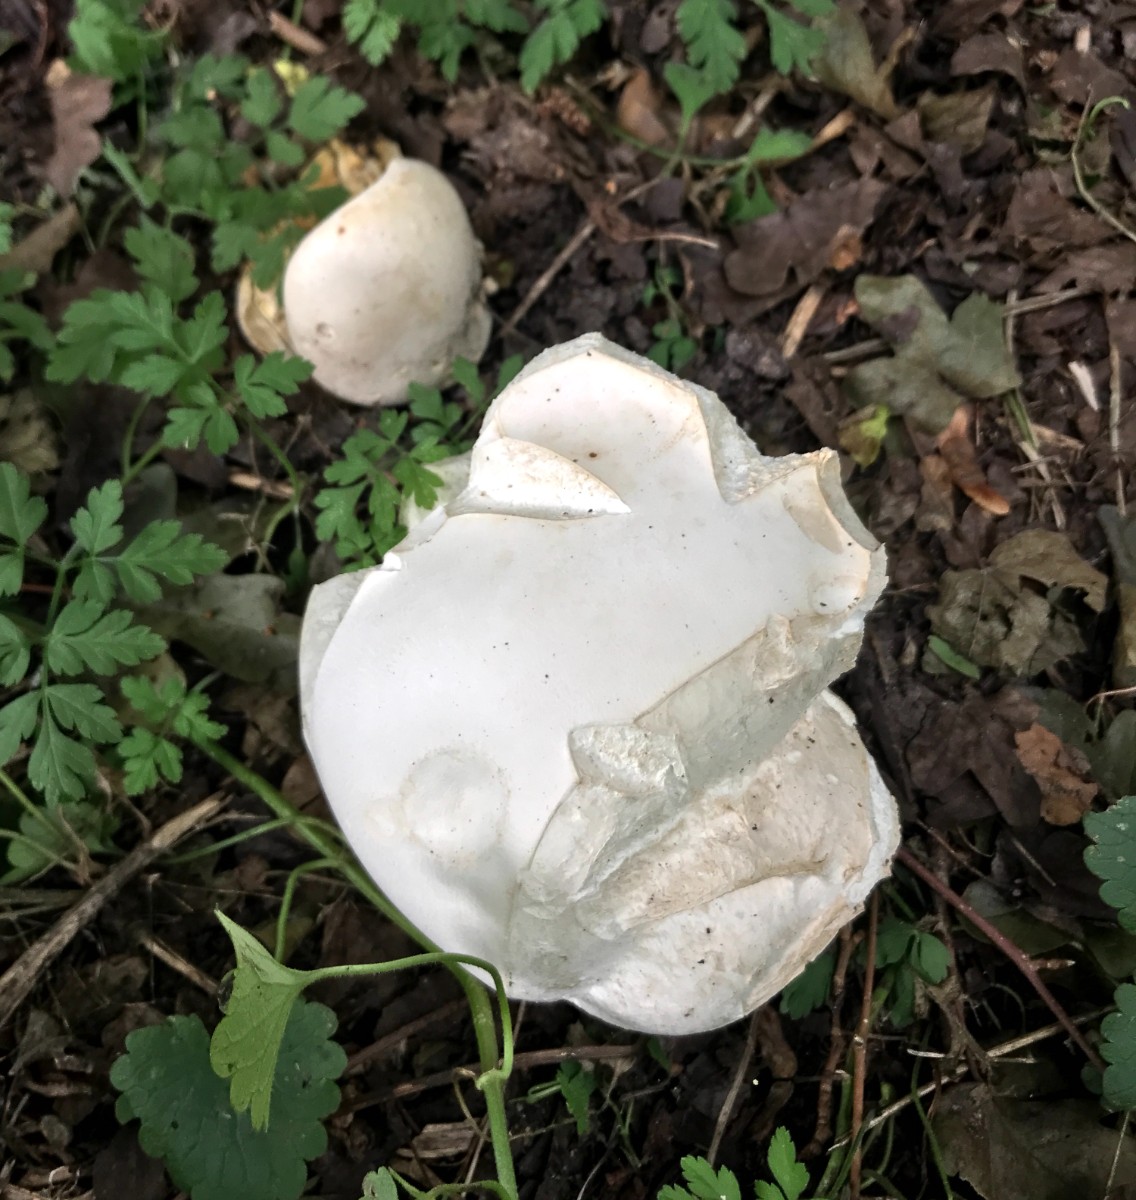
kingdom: Fungi
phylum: Basidiomycota
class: Agaricomycetes
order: Agaricales
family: Lycoperdaceae
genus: Calvatia
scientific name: Calvatia gigantea
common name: kæmpestøvbold
